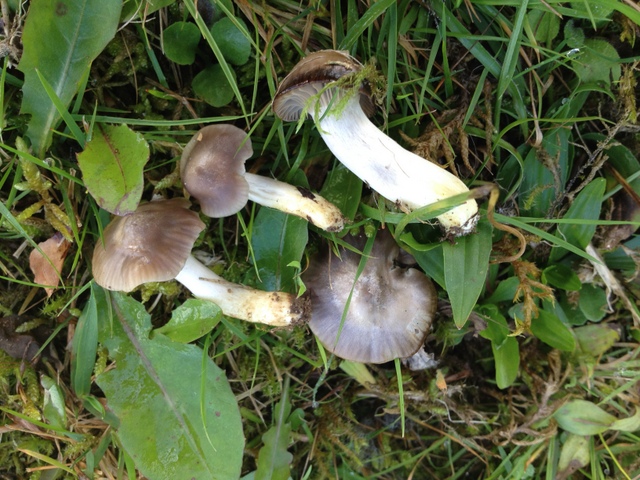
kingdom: Fungi
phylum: Basidiomycota
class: Agaricomycetes
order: Agaricales
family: Hygrophoraceae
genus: Cuphophyllus
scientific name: Cuphophyllus flavipes
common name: gulfodet vokshat
